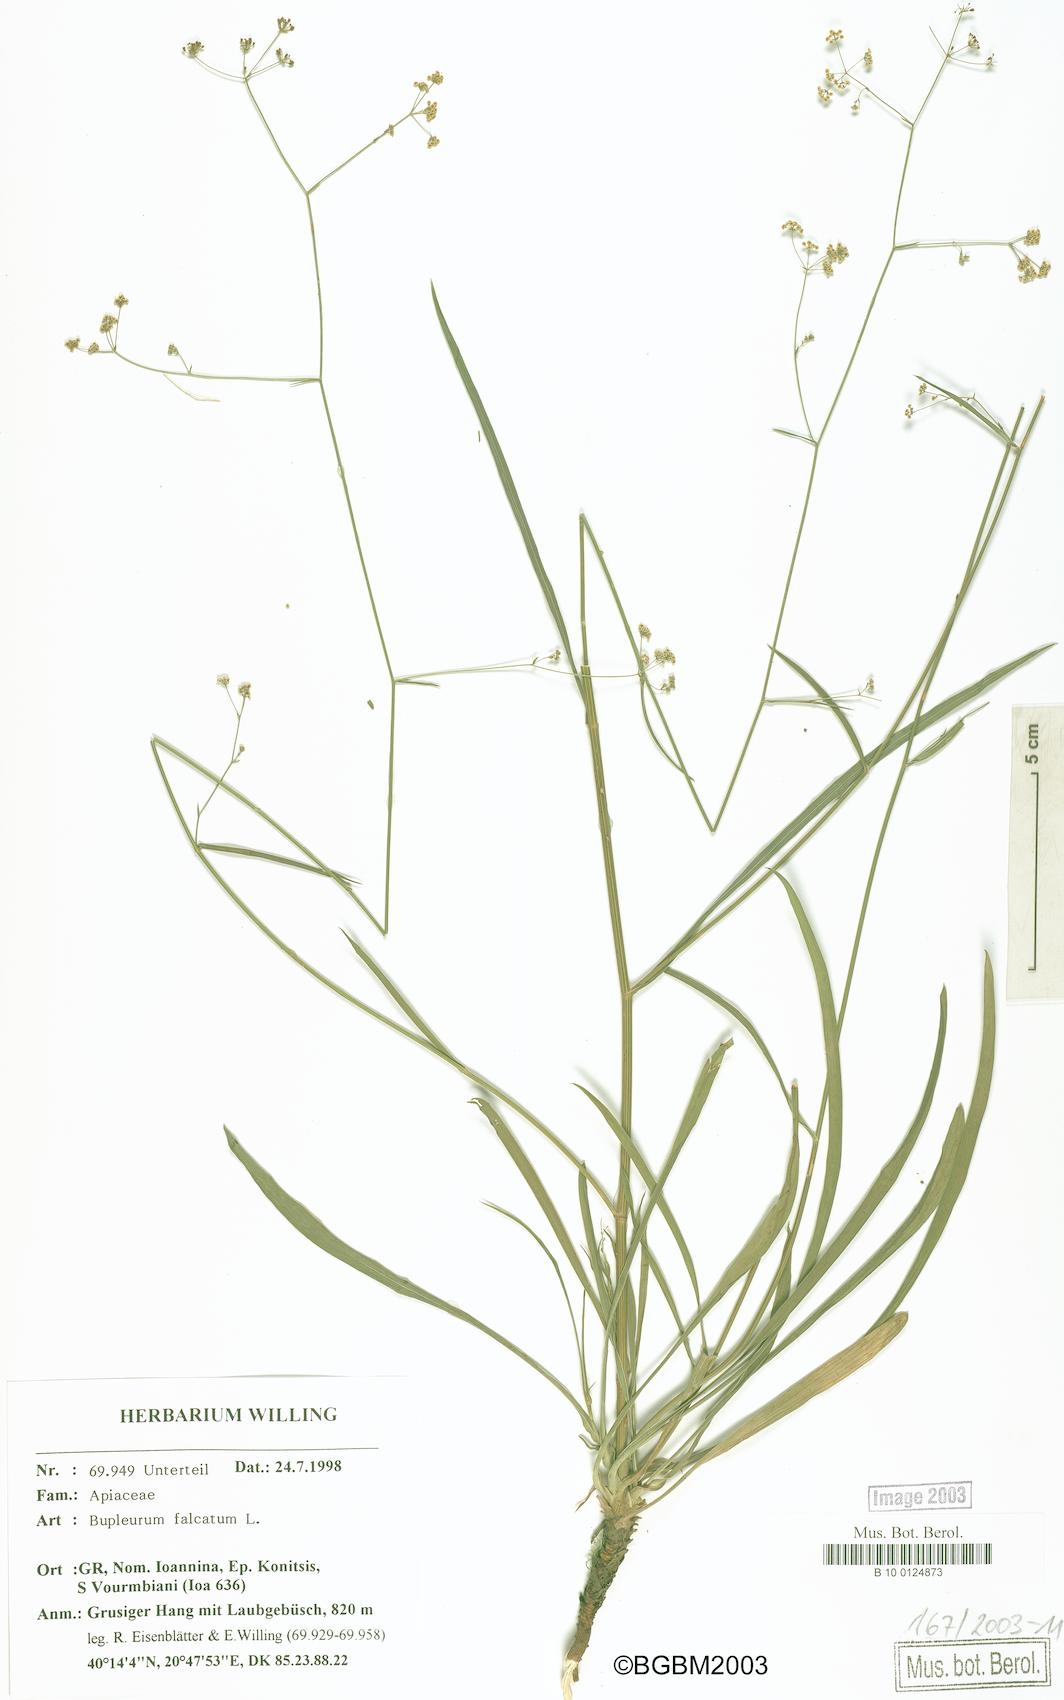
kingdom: Plantae
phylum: Tracheophyta
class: Magnoliopsida
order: Apiales
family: Apiaceae
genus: Bupleurum
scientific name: Bupleurum falcatum
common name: Sickle-leaved hare's-ear
